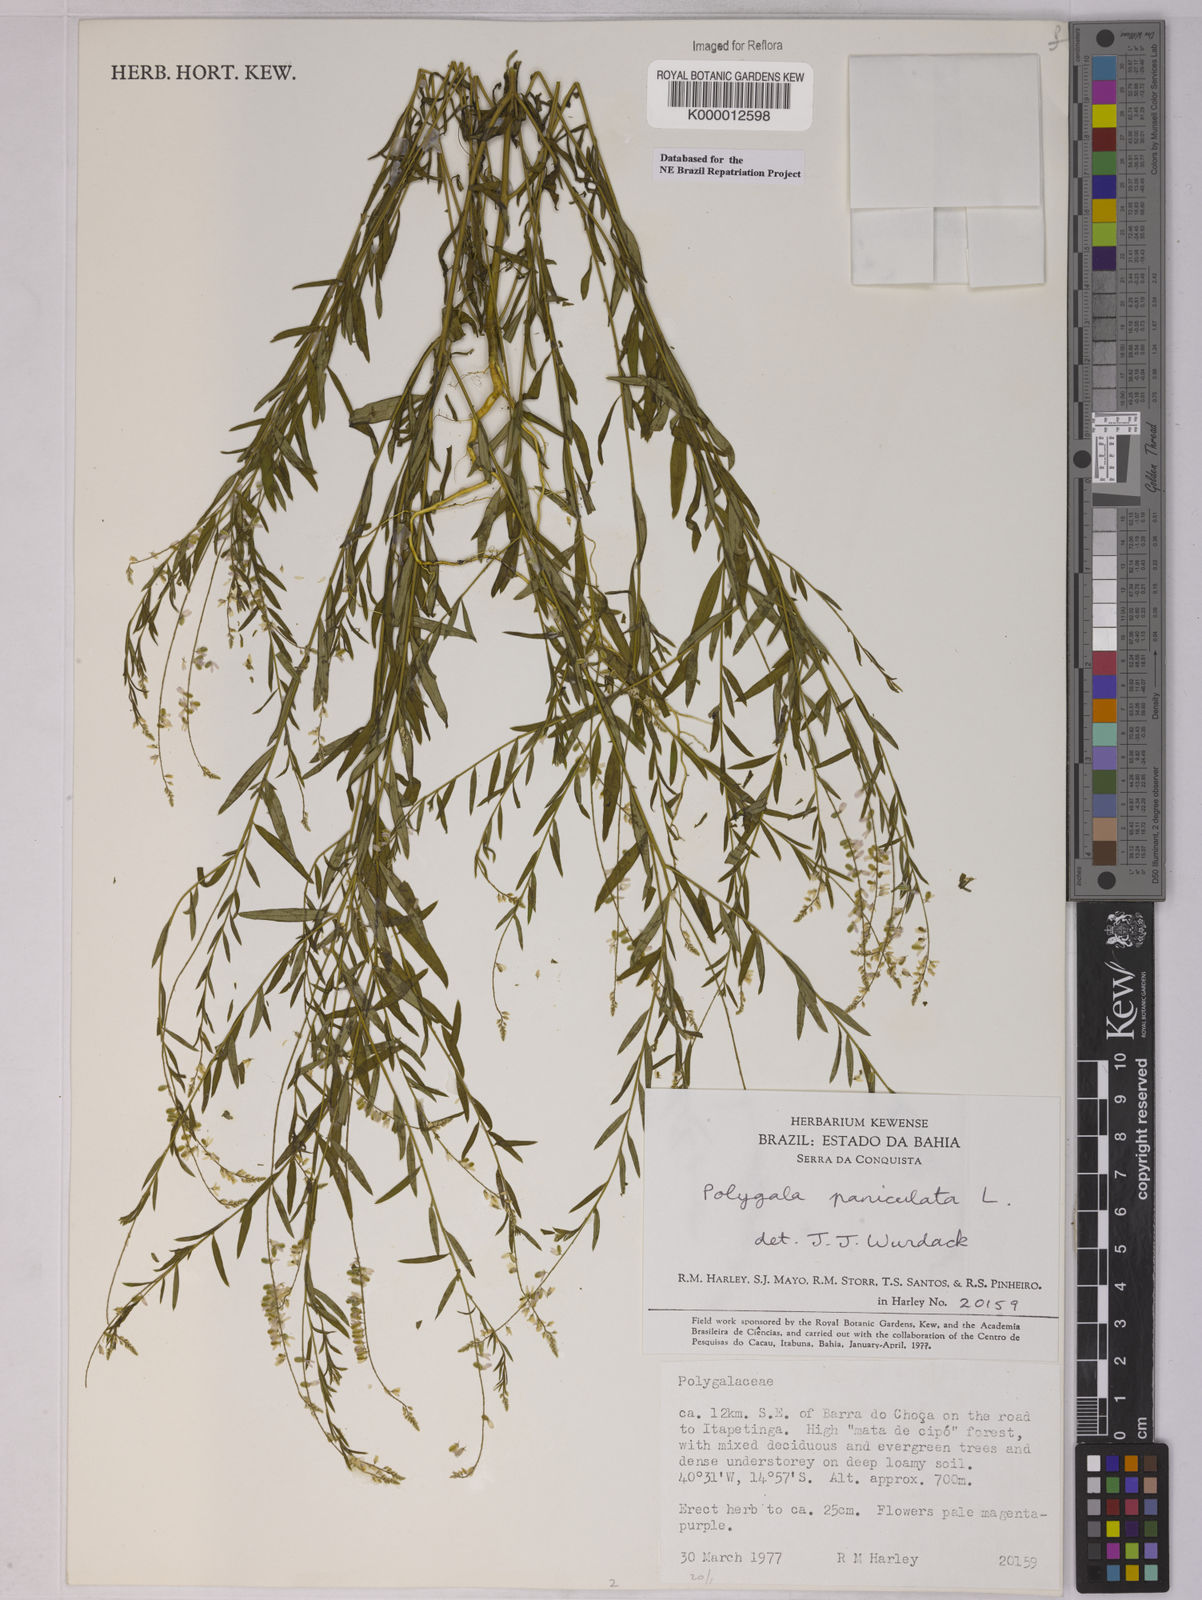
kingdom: Plantae
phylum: Tracheophyta
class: Magnoliopsida
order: Fabales
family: Polygalaceae
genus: Polygala
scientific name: Polygala paniculata
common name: Orosne
